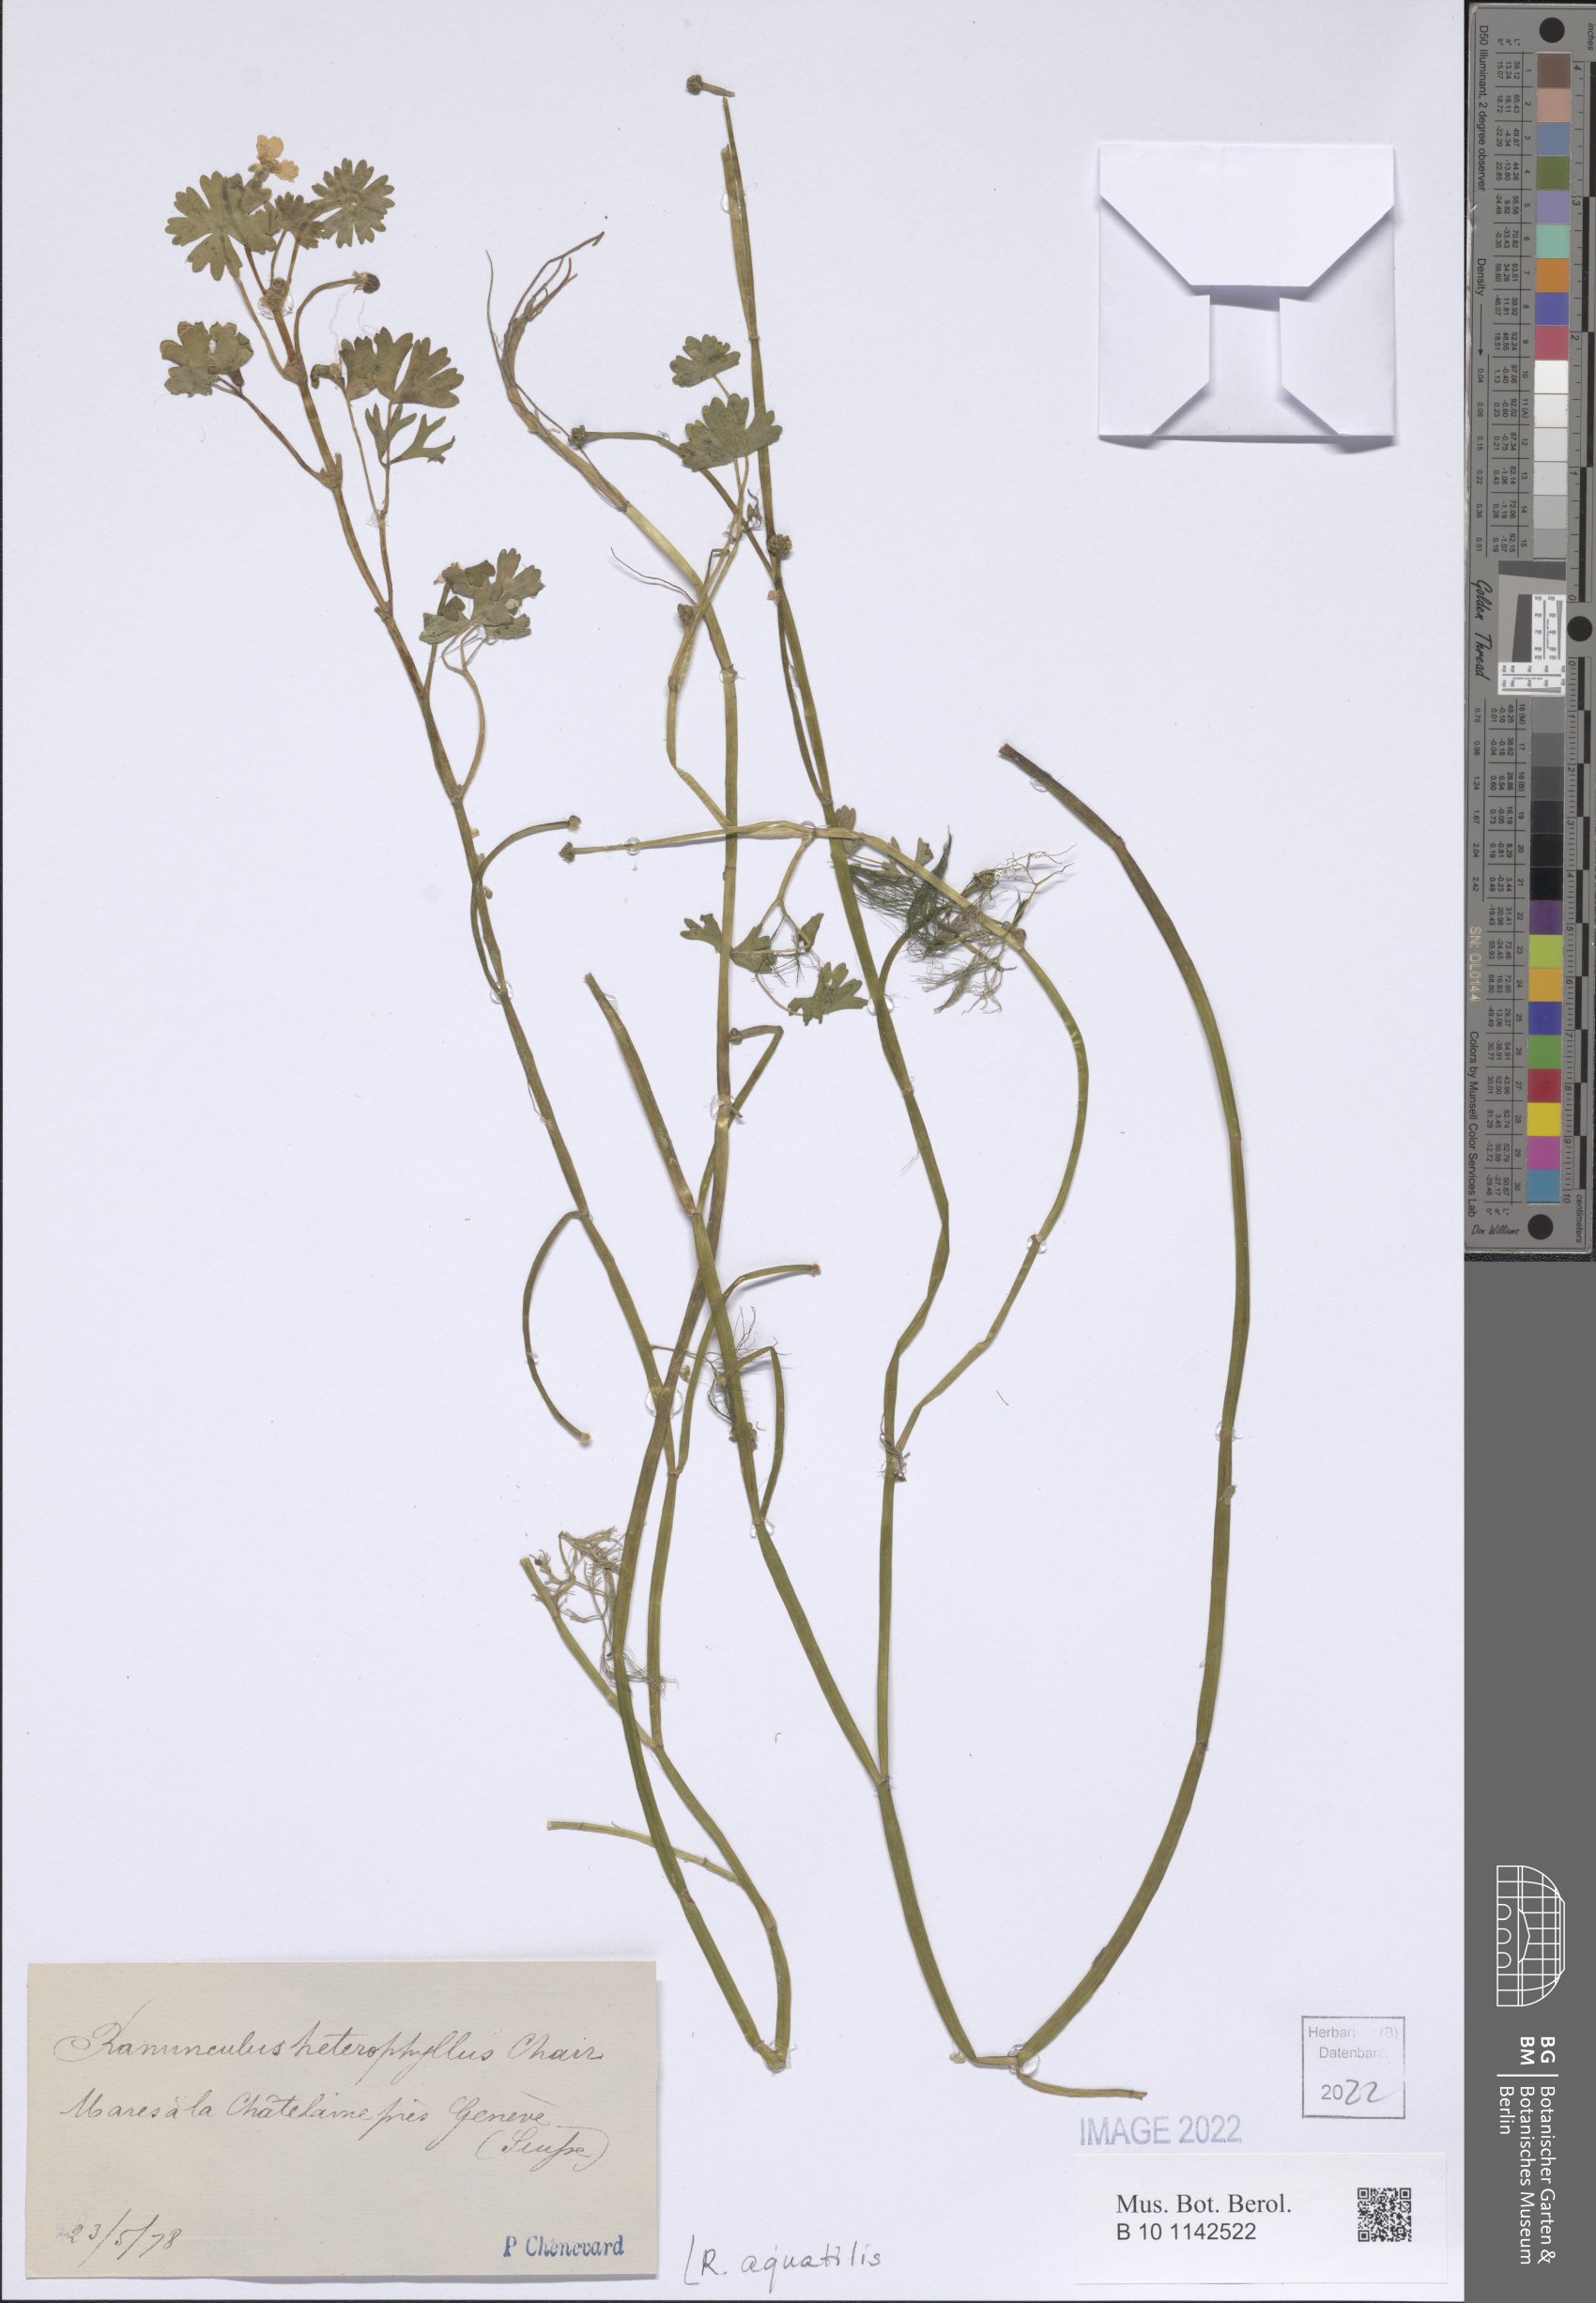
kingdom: Plantae
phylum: Tracheophyta
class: Magnoliopsida
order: Ranunculales
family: Ranunculaceae
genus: Ranunculus
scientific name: Ranunculus aquatilis
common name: Common water-crowfoot
